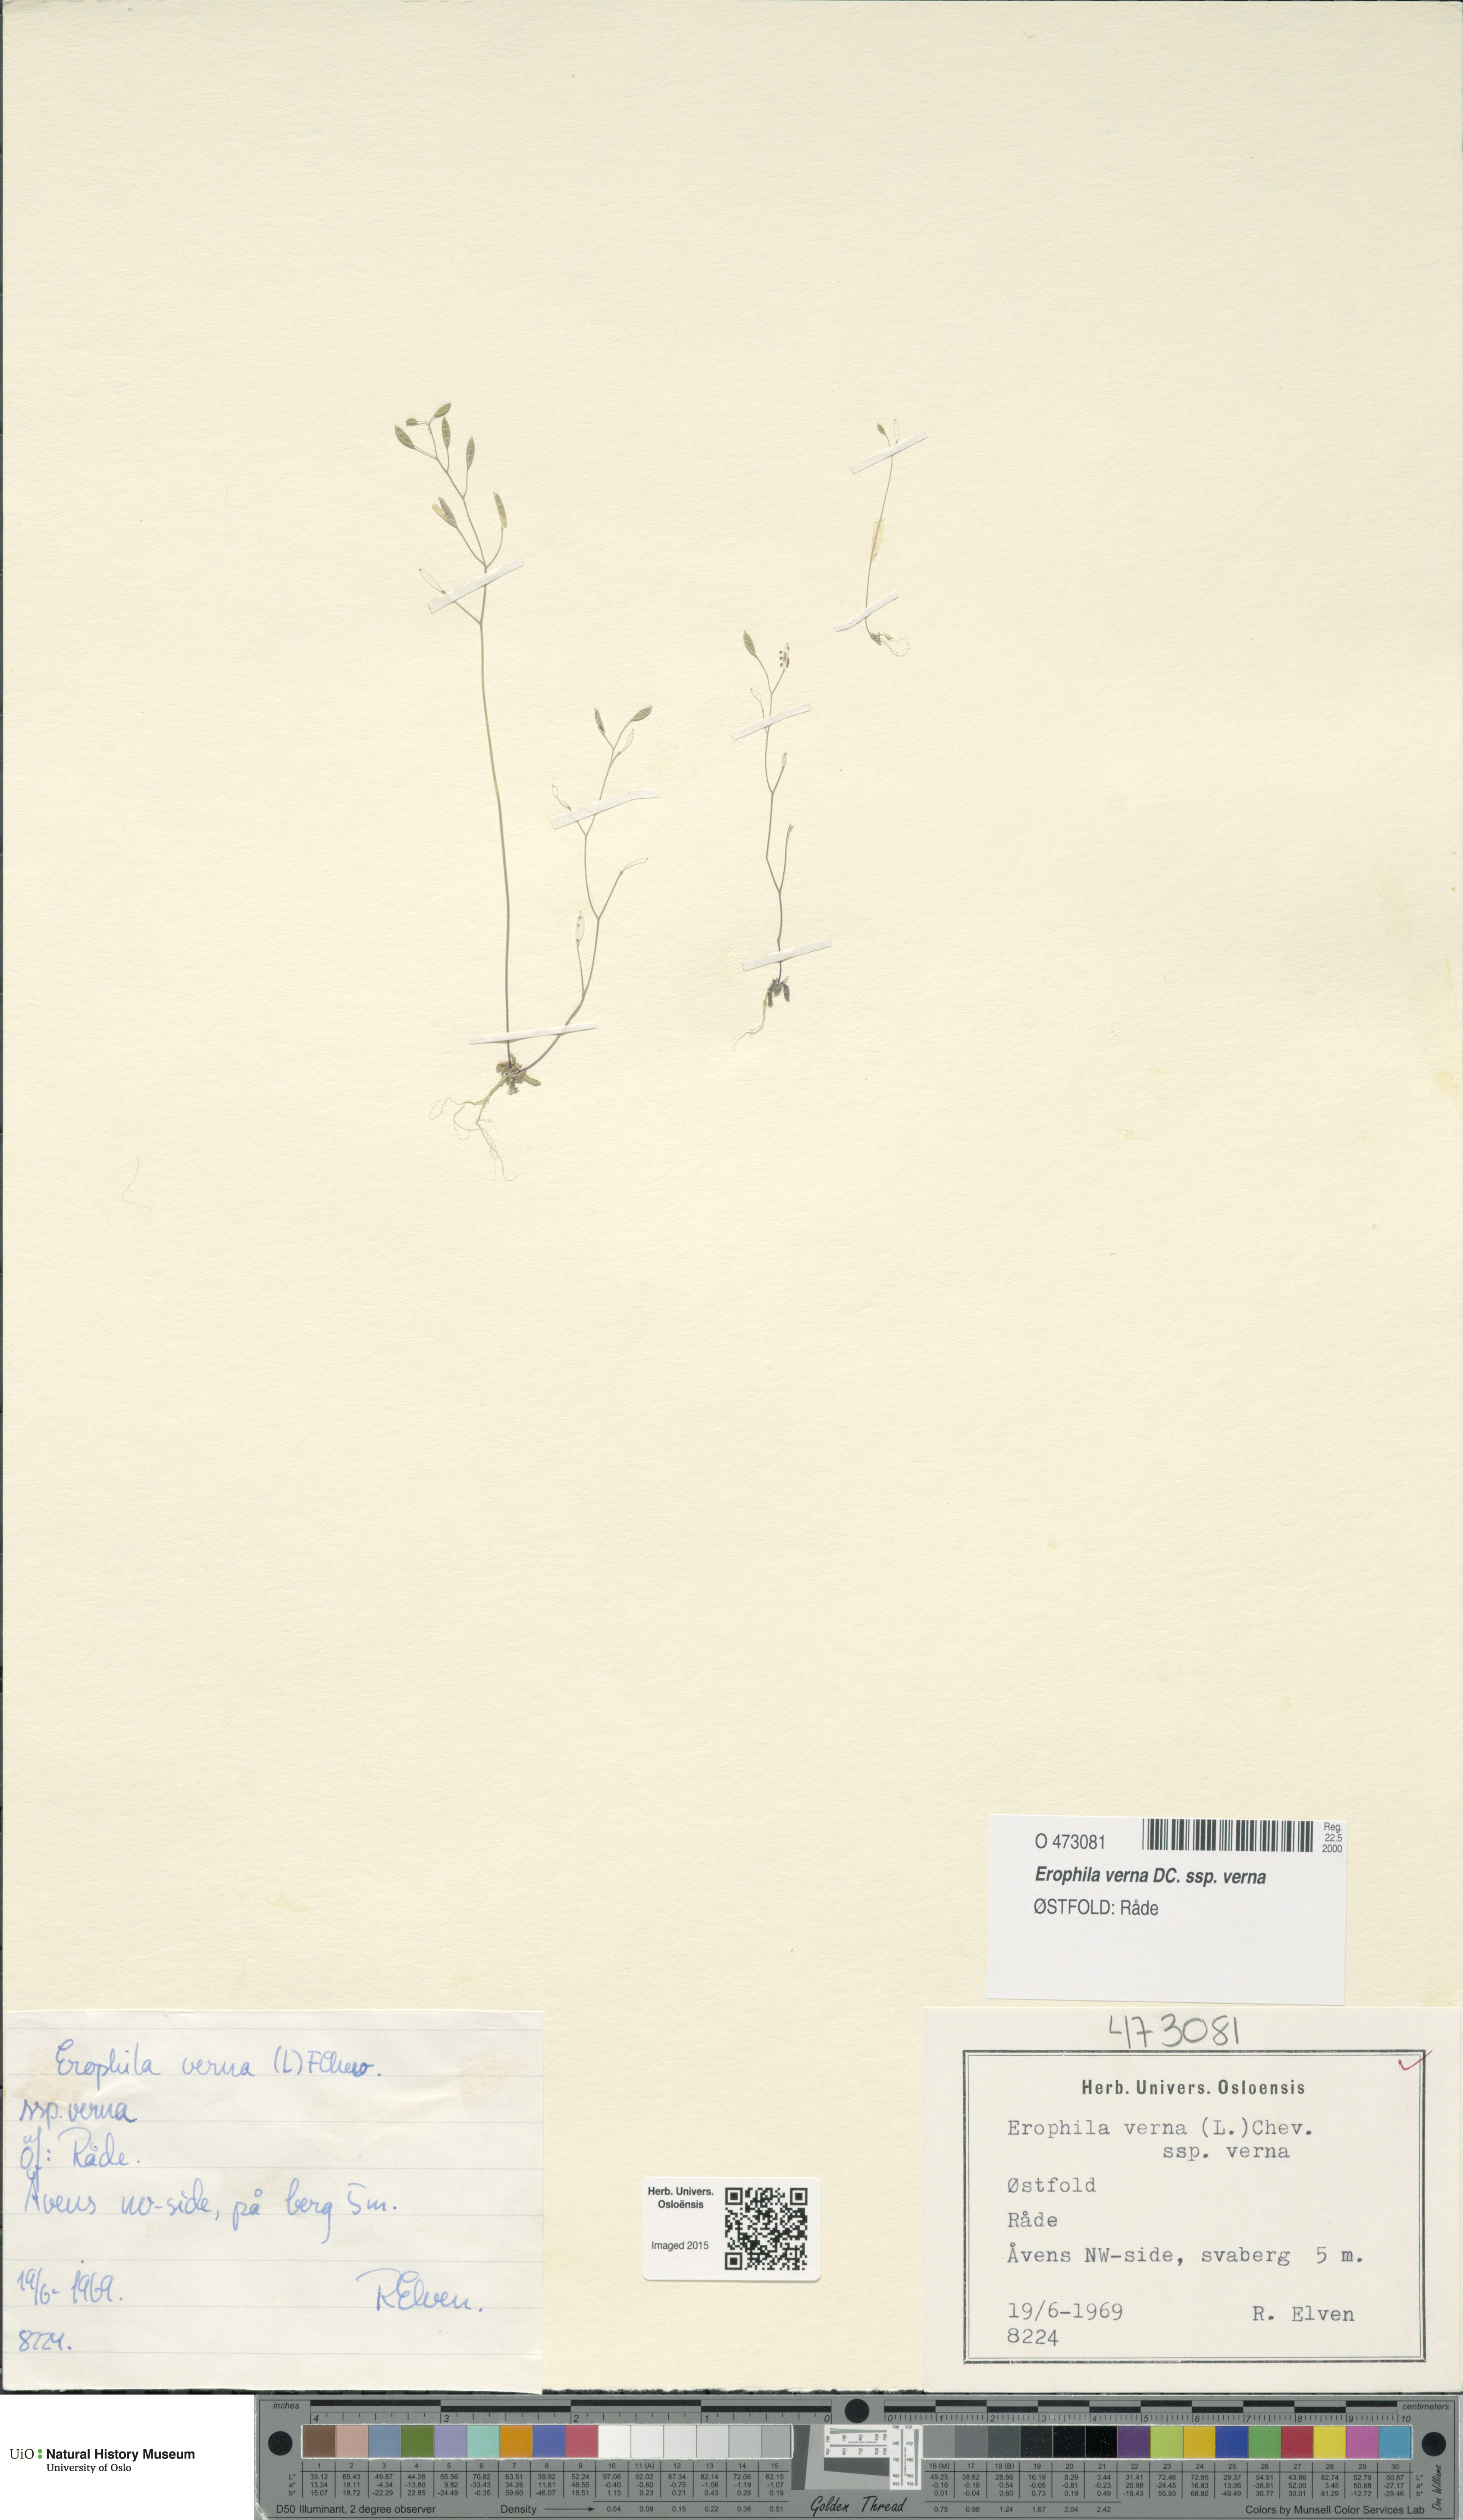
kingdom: Plantae
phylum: Tracheophyta
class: Magnoliopsida
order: Brassicales
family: Brassicaceae
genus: Draba
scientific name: Draba verna
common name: Spring draba
